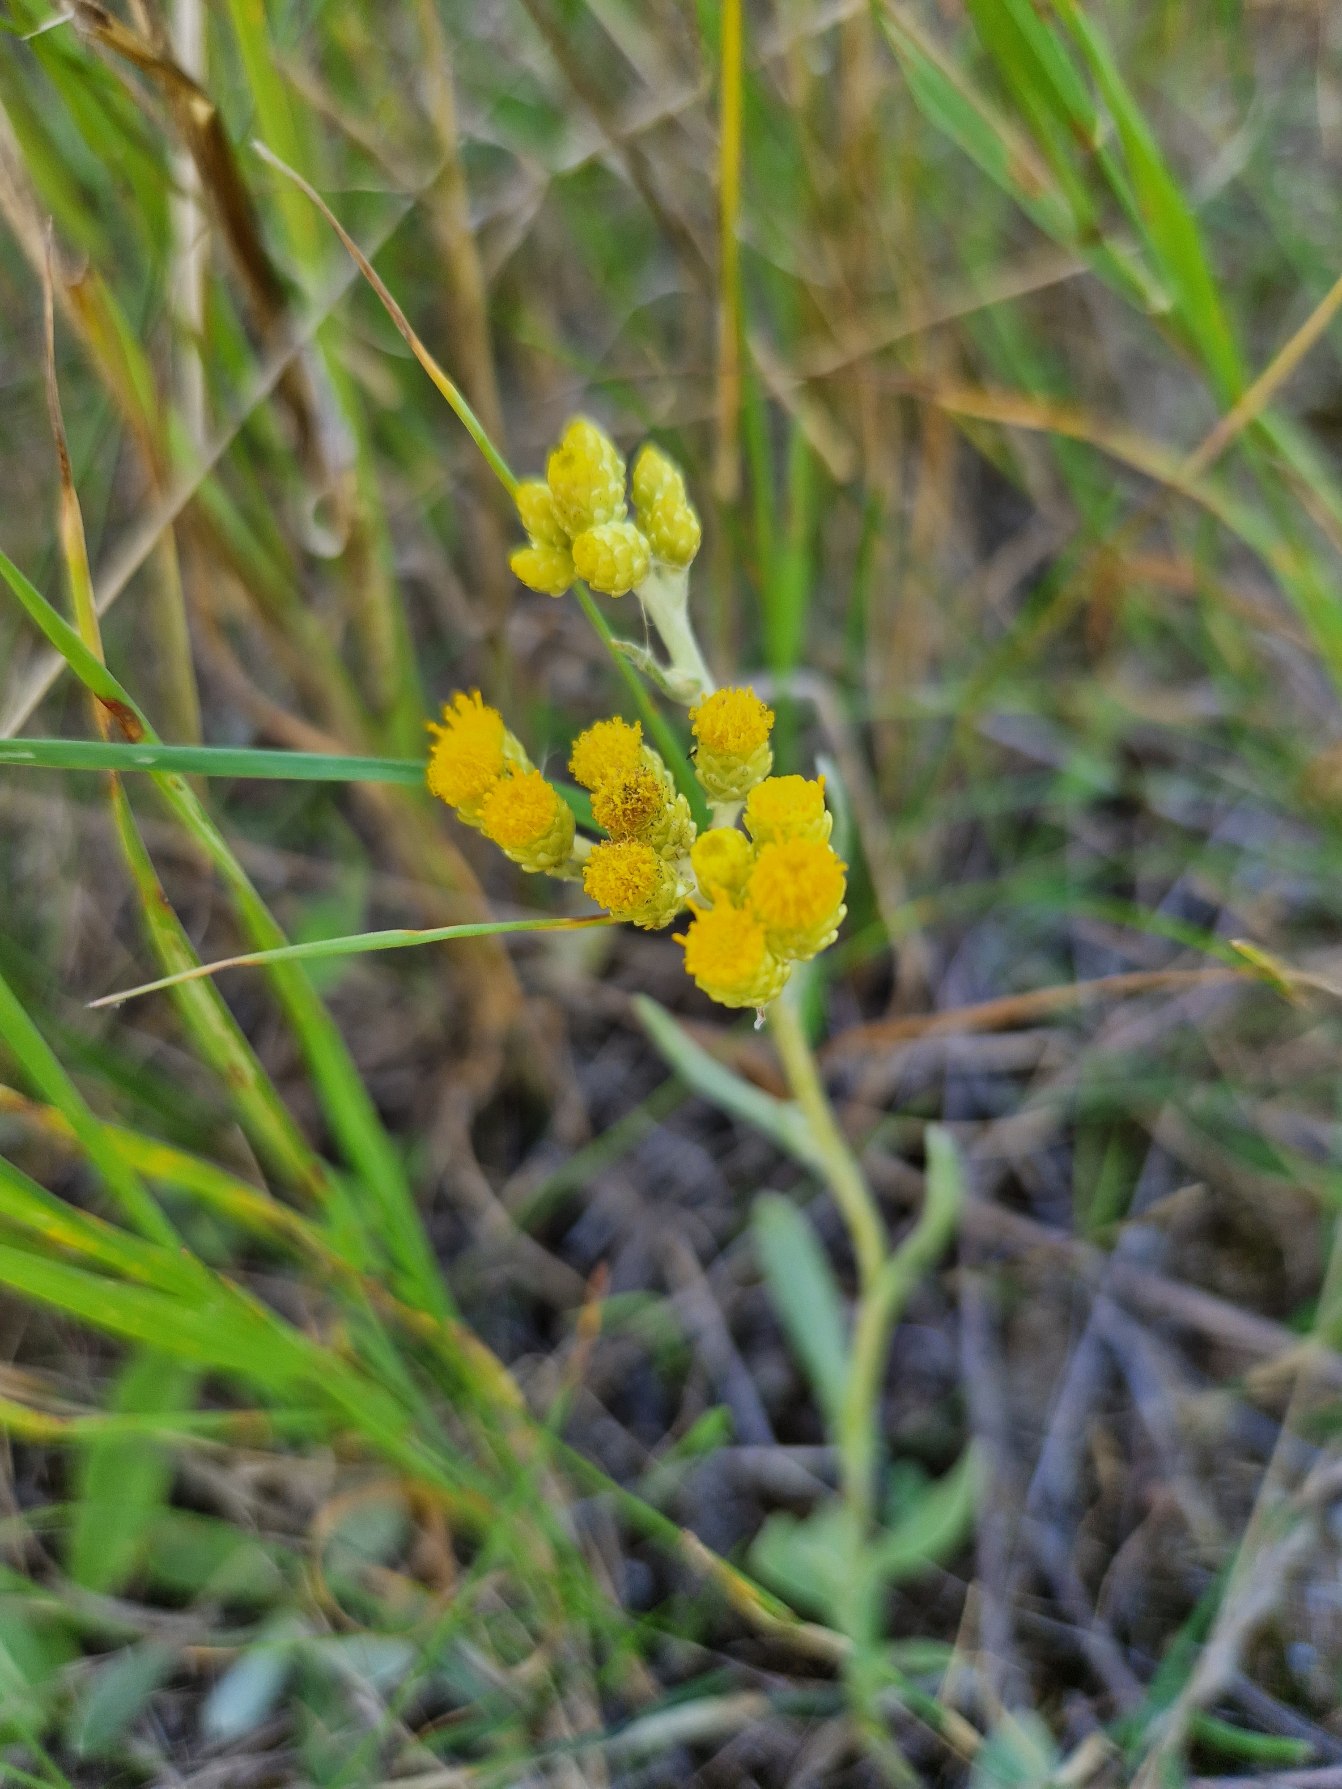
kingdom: Plantae
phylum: Tracheophyta
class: Magnoliopsida
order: Asterales
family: Asteraceae
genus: Helichrysum
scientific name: Helichrysum arenarium
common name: Gul evighedsblomst
